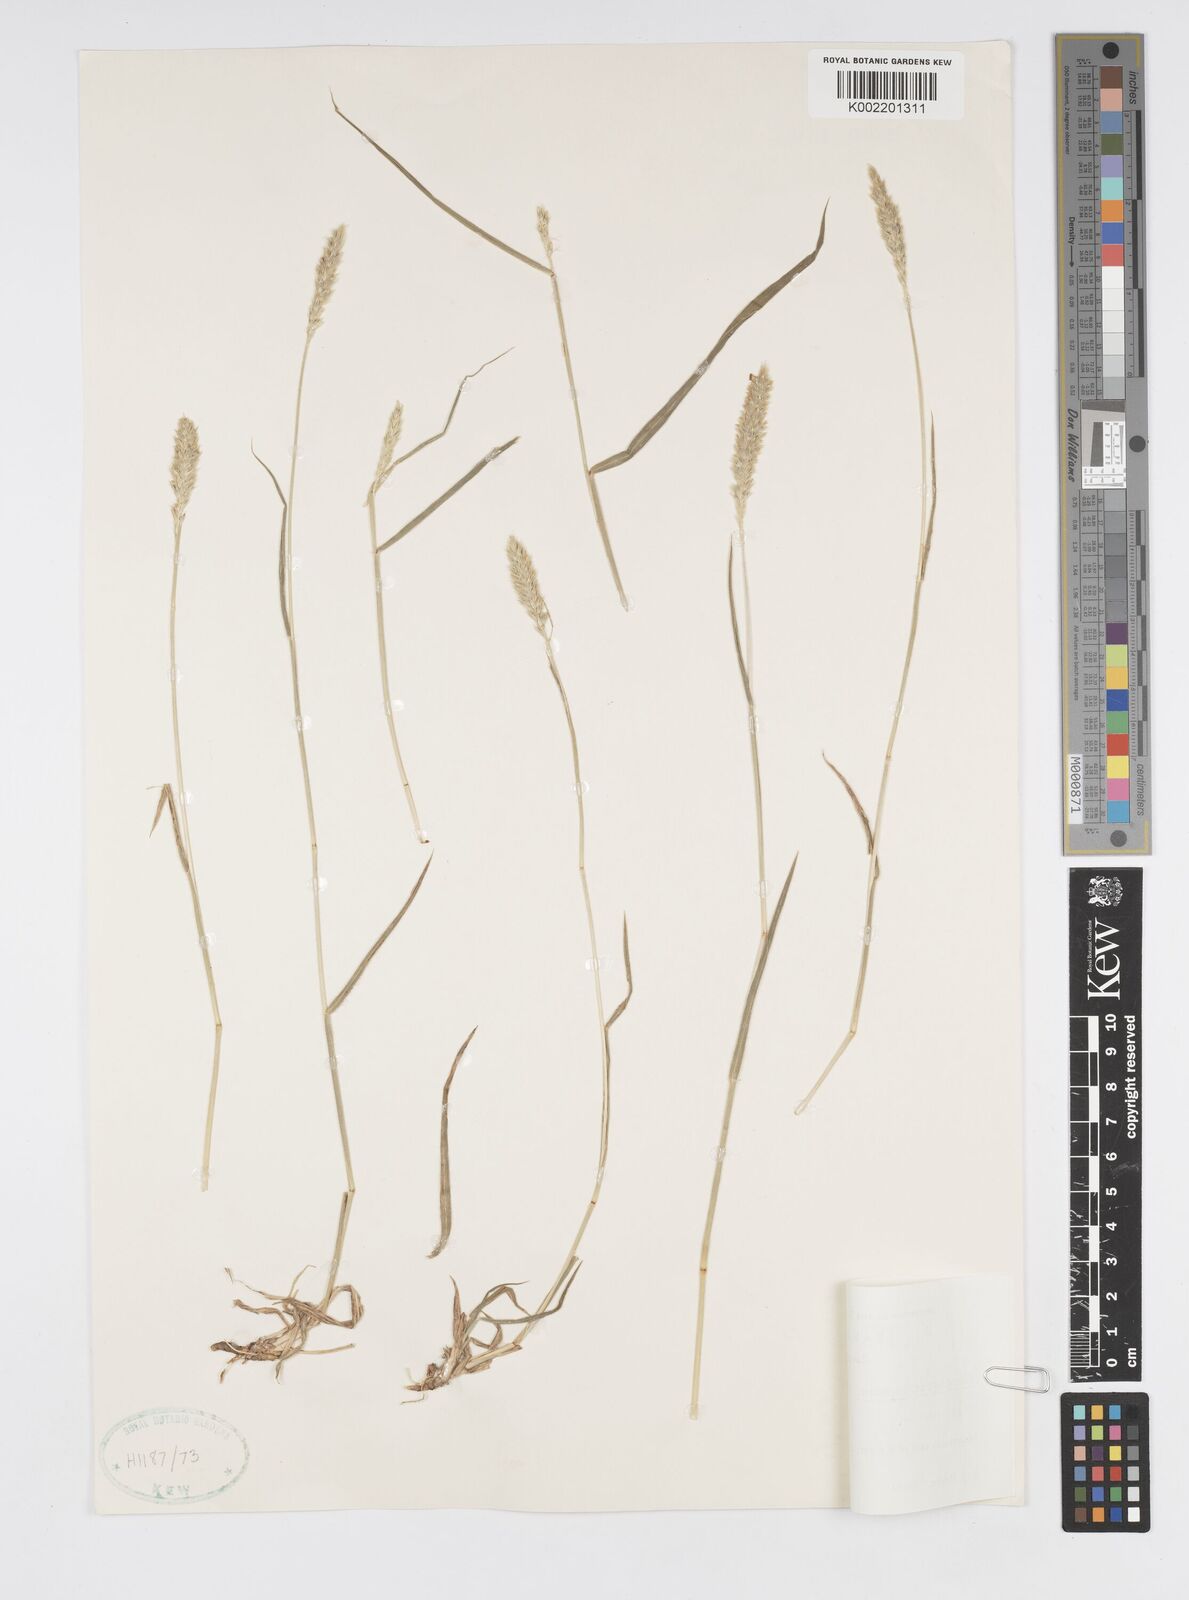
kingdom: Plantae
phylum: Tracheophyta
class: Liliopsida
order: Poales
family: Poaceae
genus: Cenchrus
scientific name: Cenchrus lanatus
